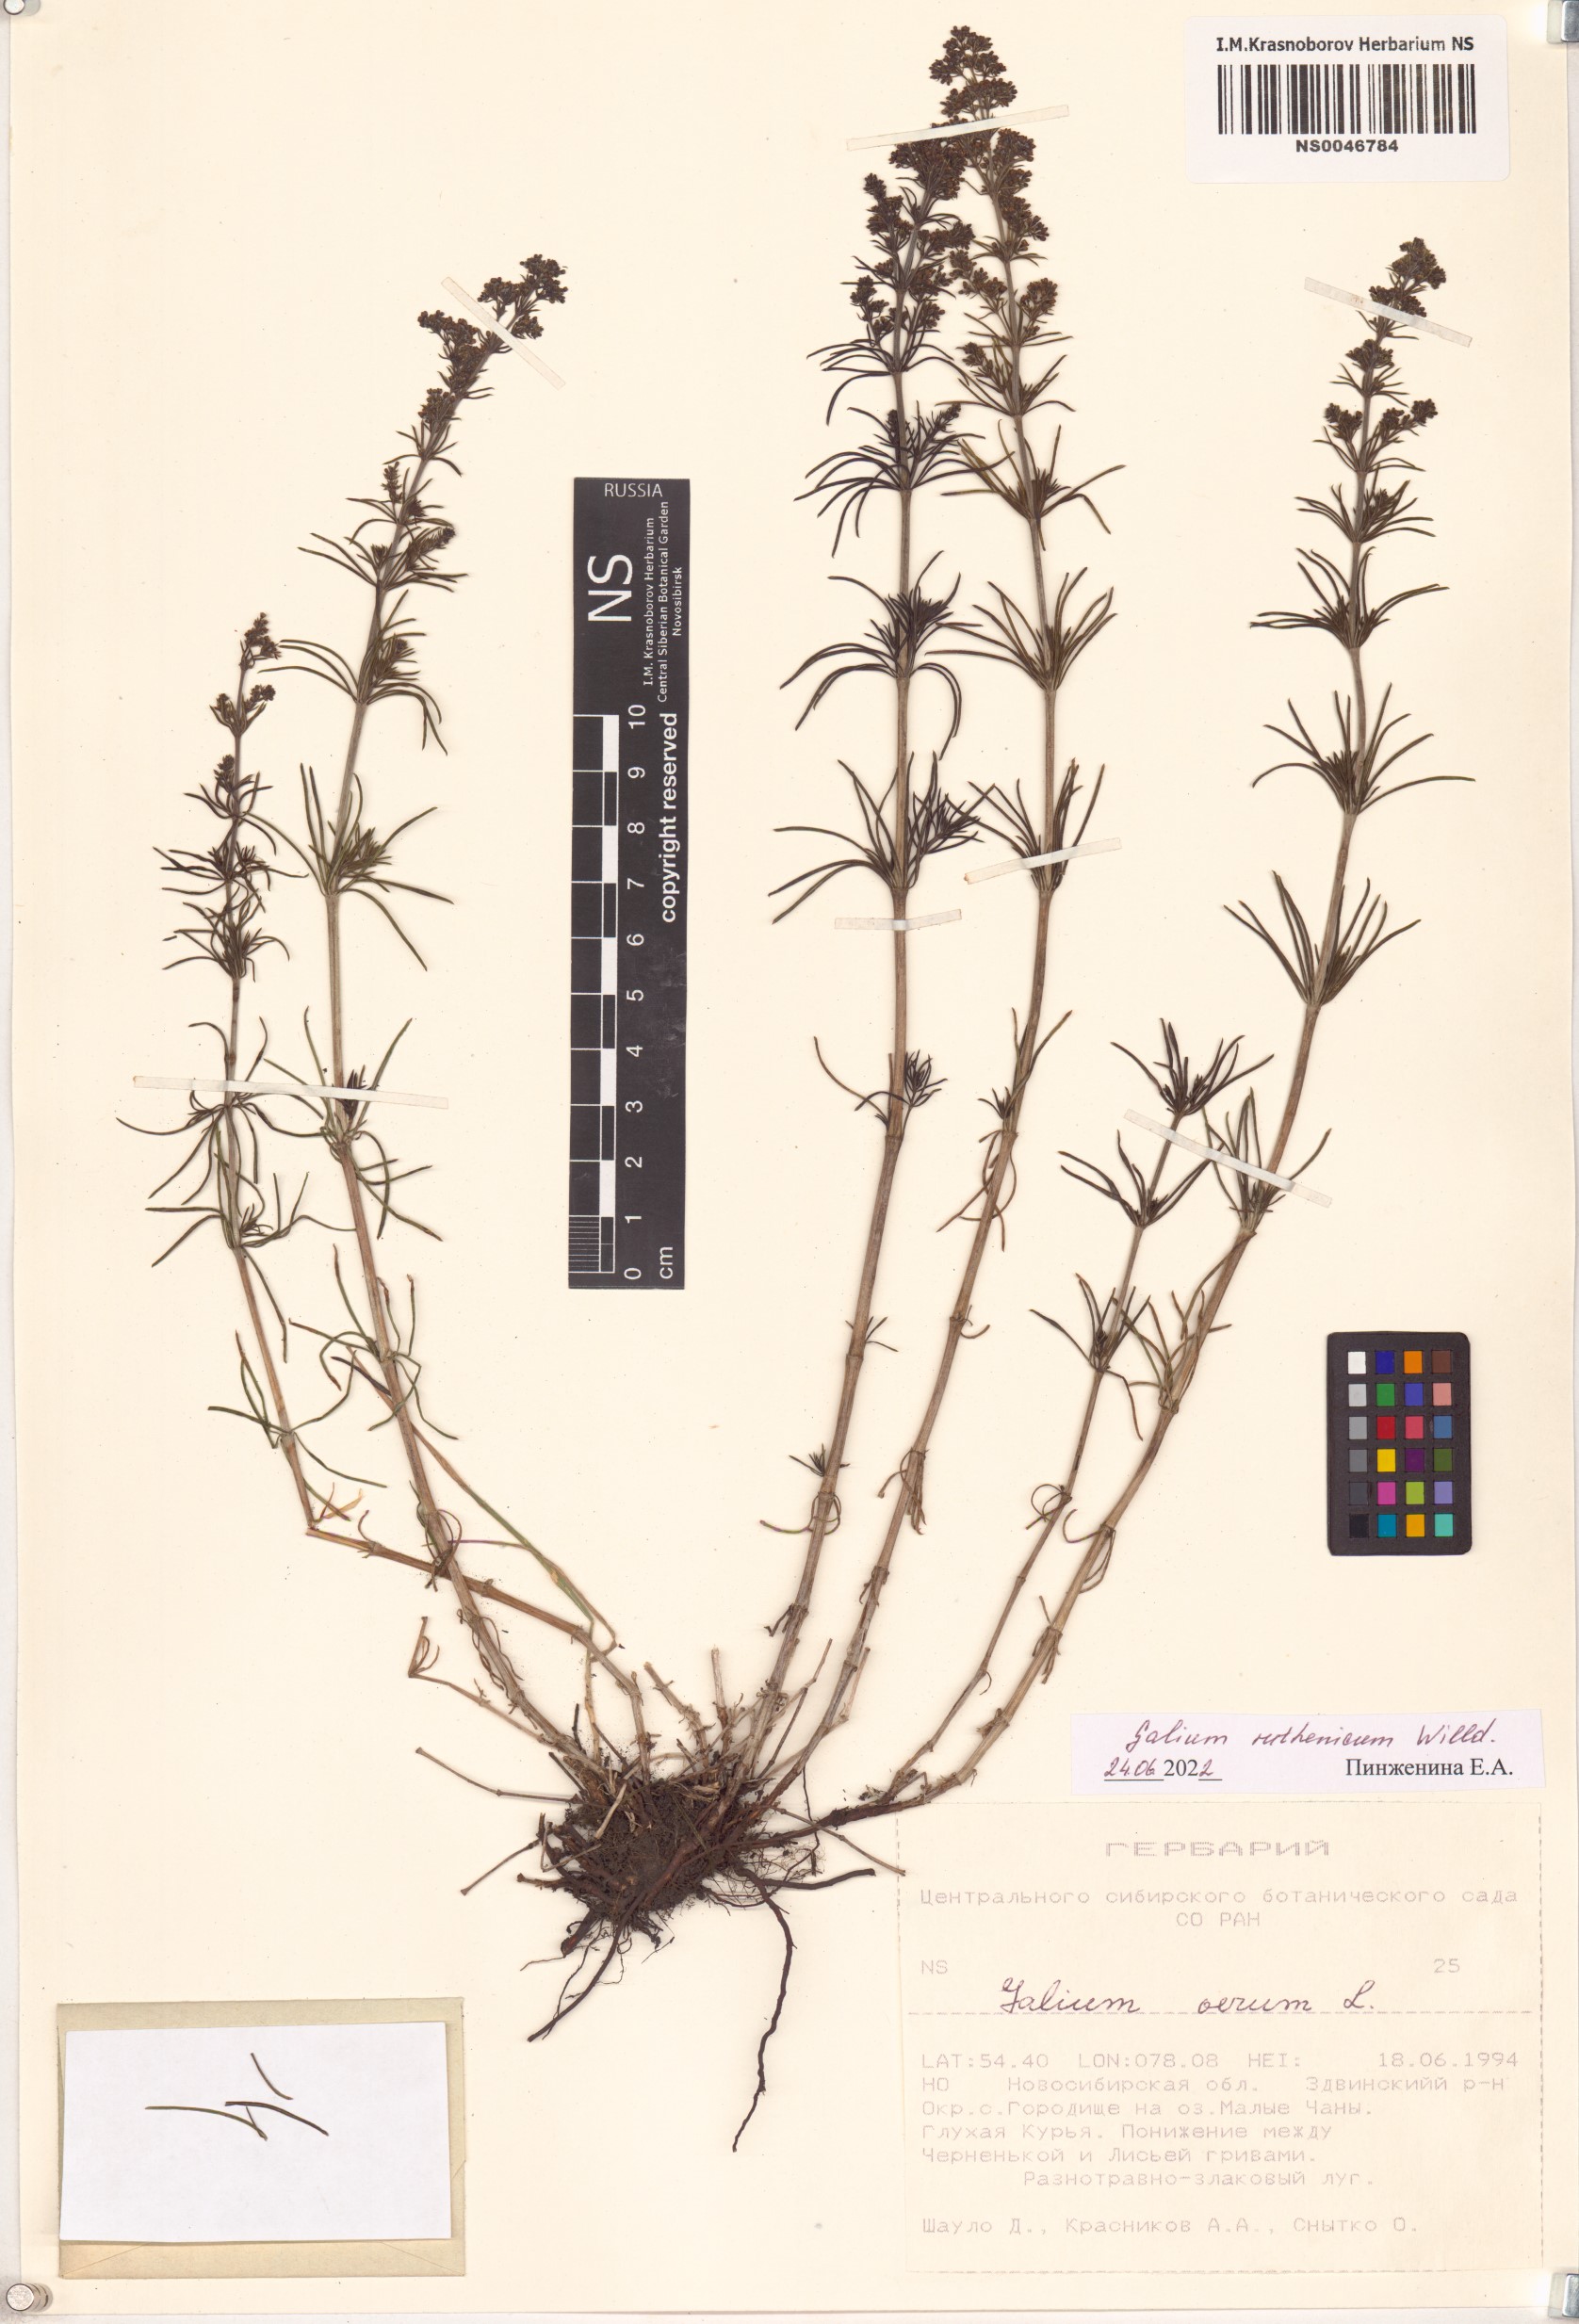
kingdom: Plantae
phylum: Tracheophyta
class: Magnoliopsida
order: Gentianales
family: Rubiaceae
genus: Galium
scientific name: Galium verum
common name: Lady's bedstraw
